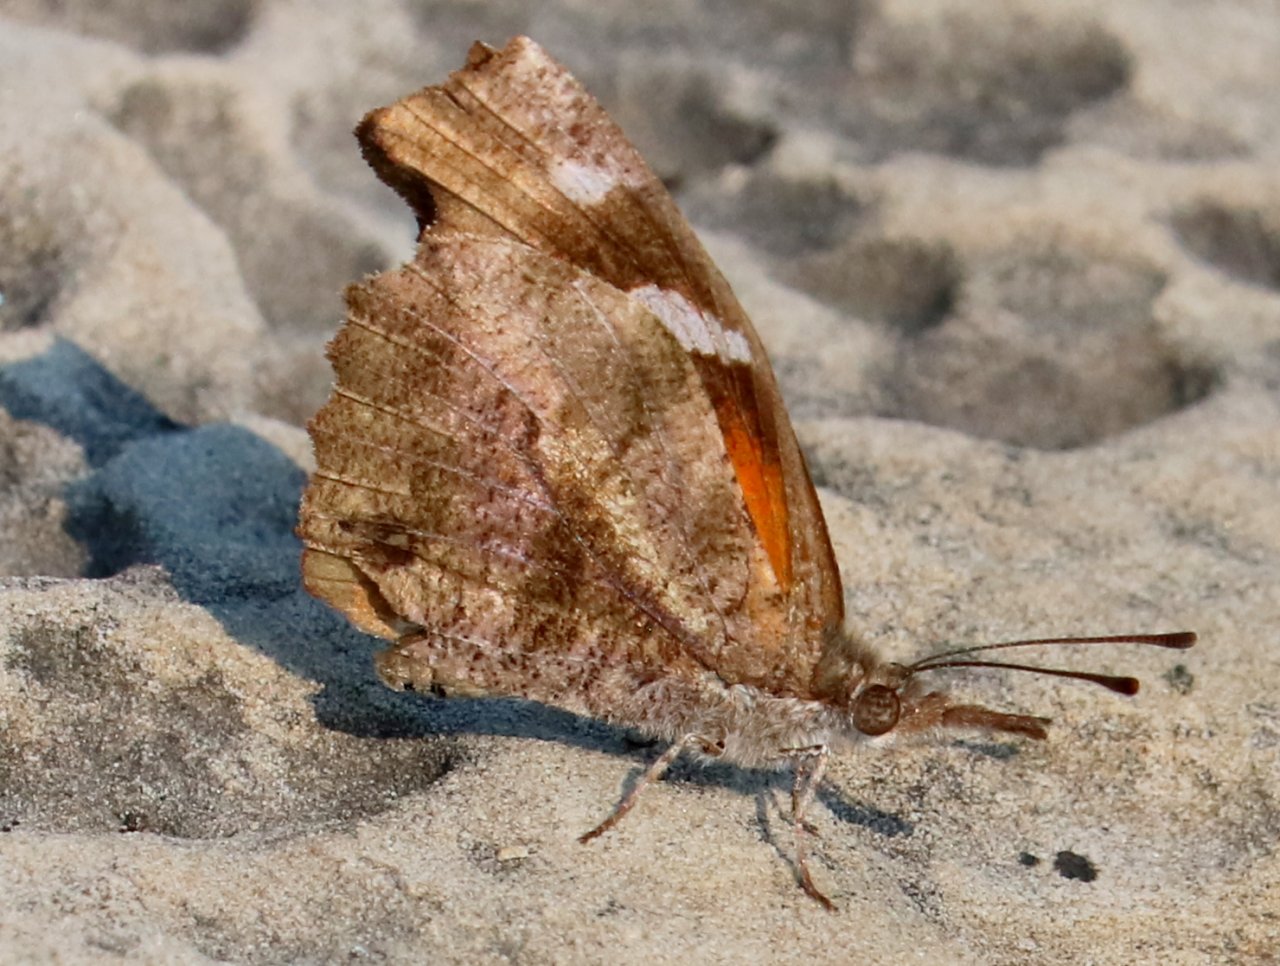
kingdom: Animalia
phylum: Arthropoda
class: Insecta
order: Lepidoptera
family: Nymphalidae
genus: Libytheana
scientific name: Libytheana carinenta
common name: American Snout
